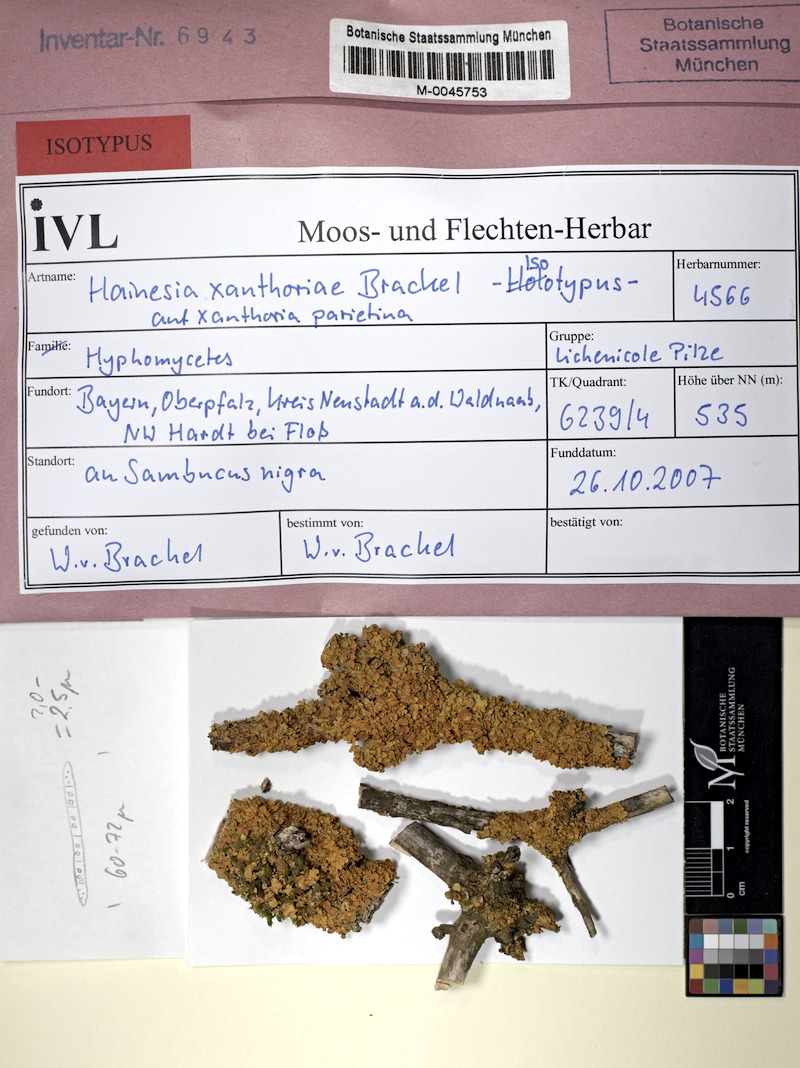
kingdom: Fungi
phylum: Ascomycota
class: Leotiomycetes
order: Leotiales
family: Mniaeciaceae
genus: Epithamnolia
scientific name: Epithamnolia xanthoriae
